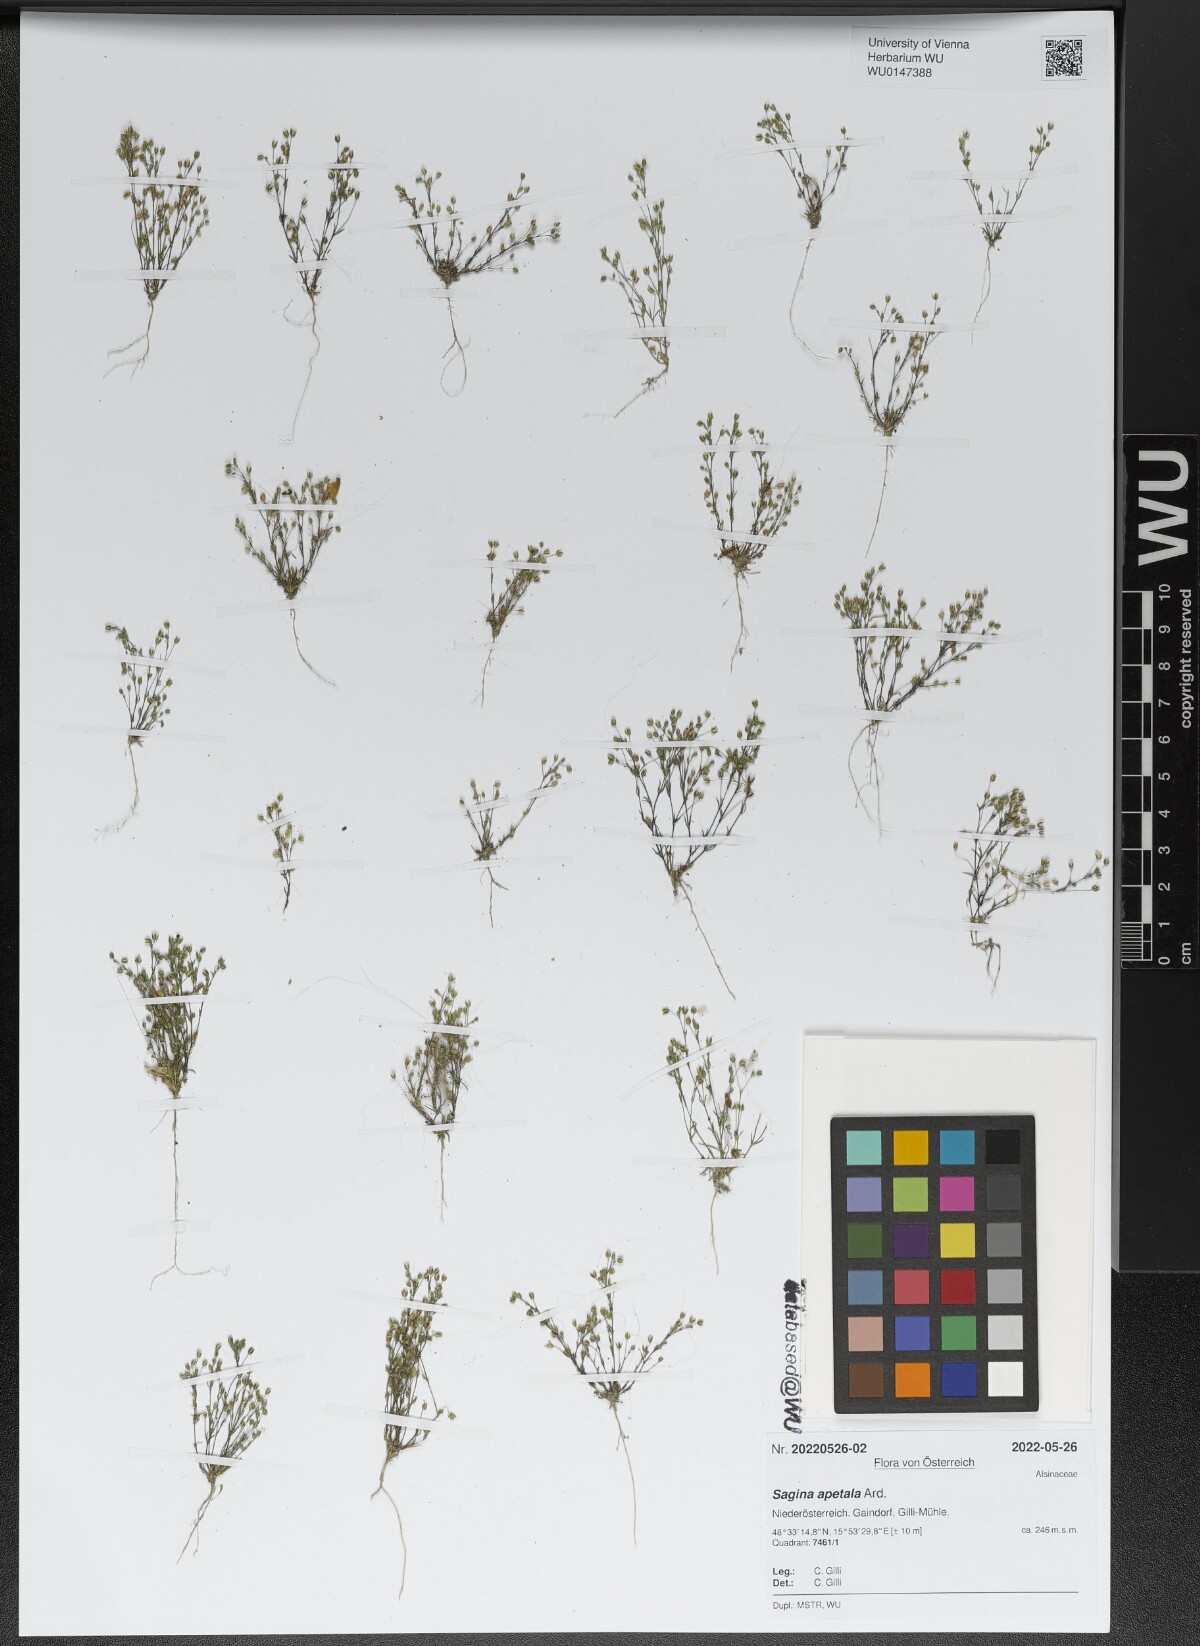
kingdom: Plantae
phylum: Tracheophyta
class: Magnoliopsida
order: Caryophyllales
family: Caryophyllaceae
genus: Sagina
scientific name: Sagina apetala
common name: Annual pearlwort
